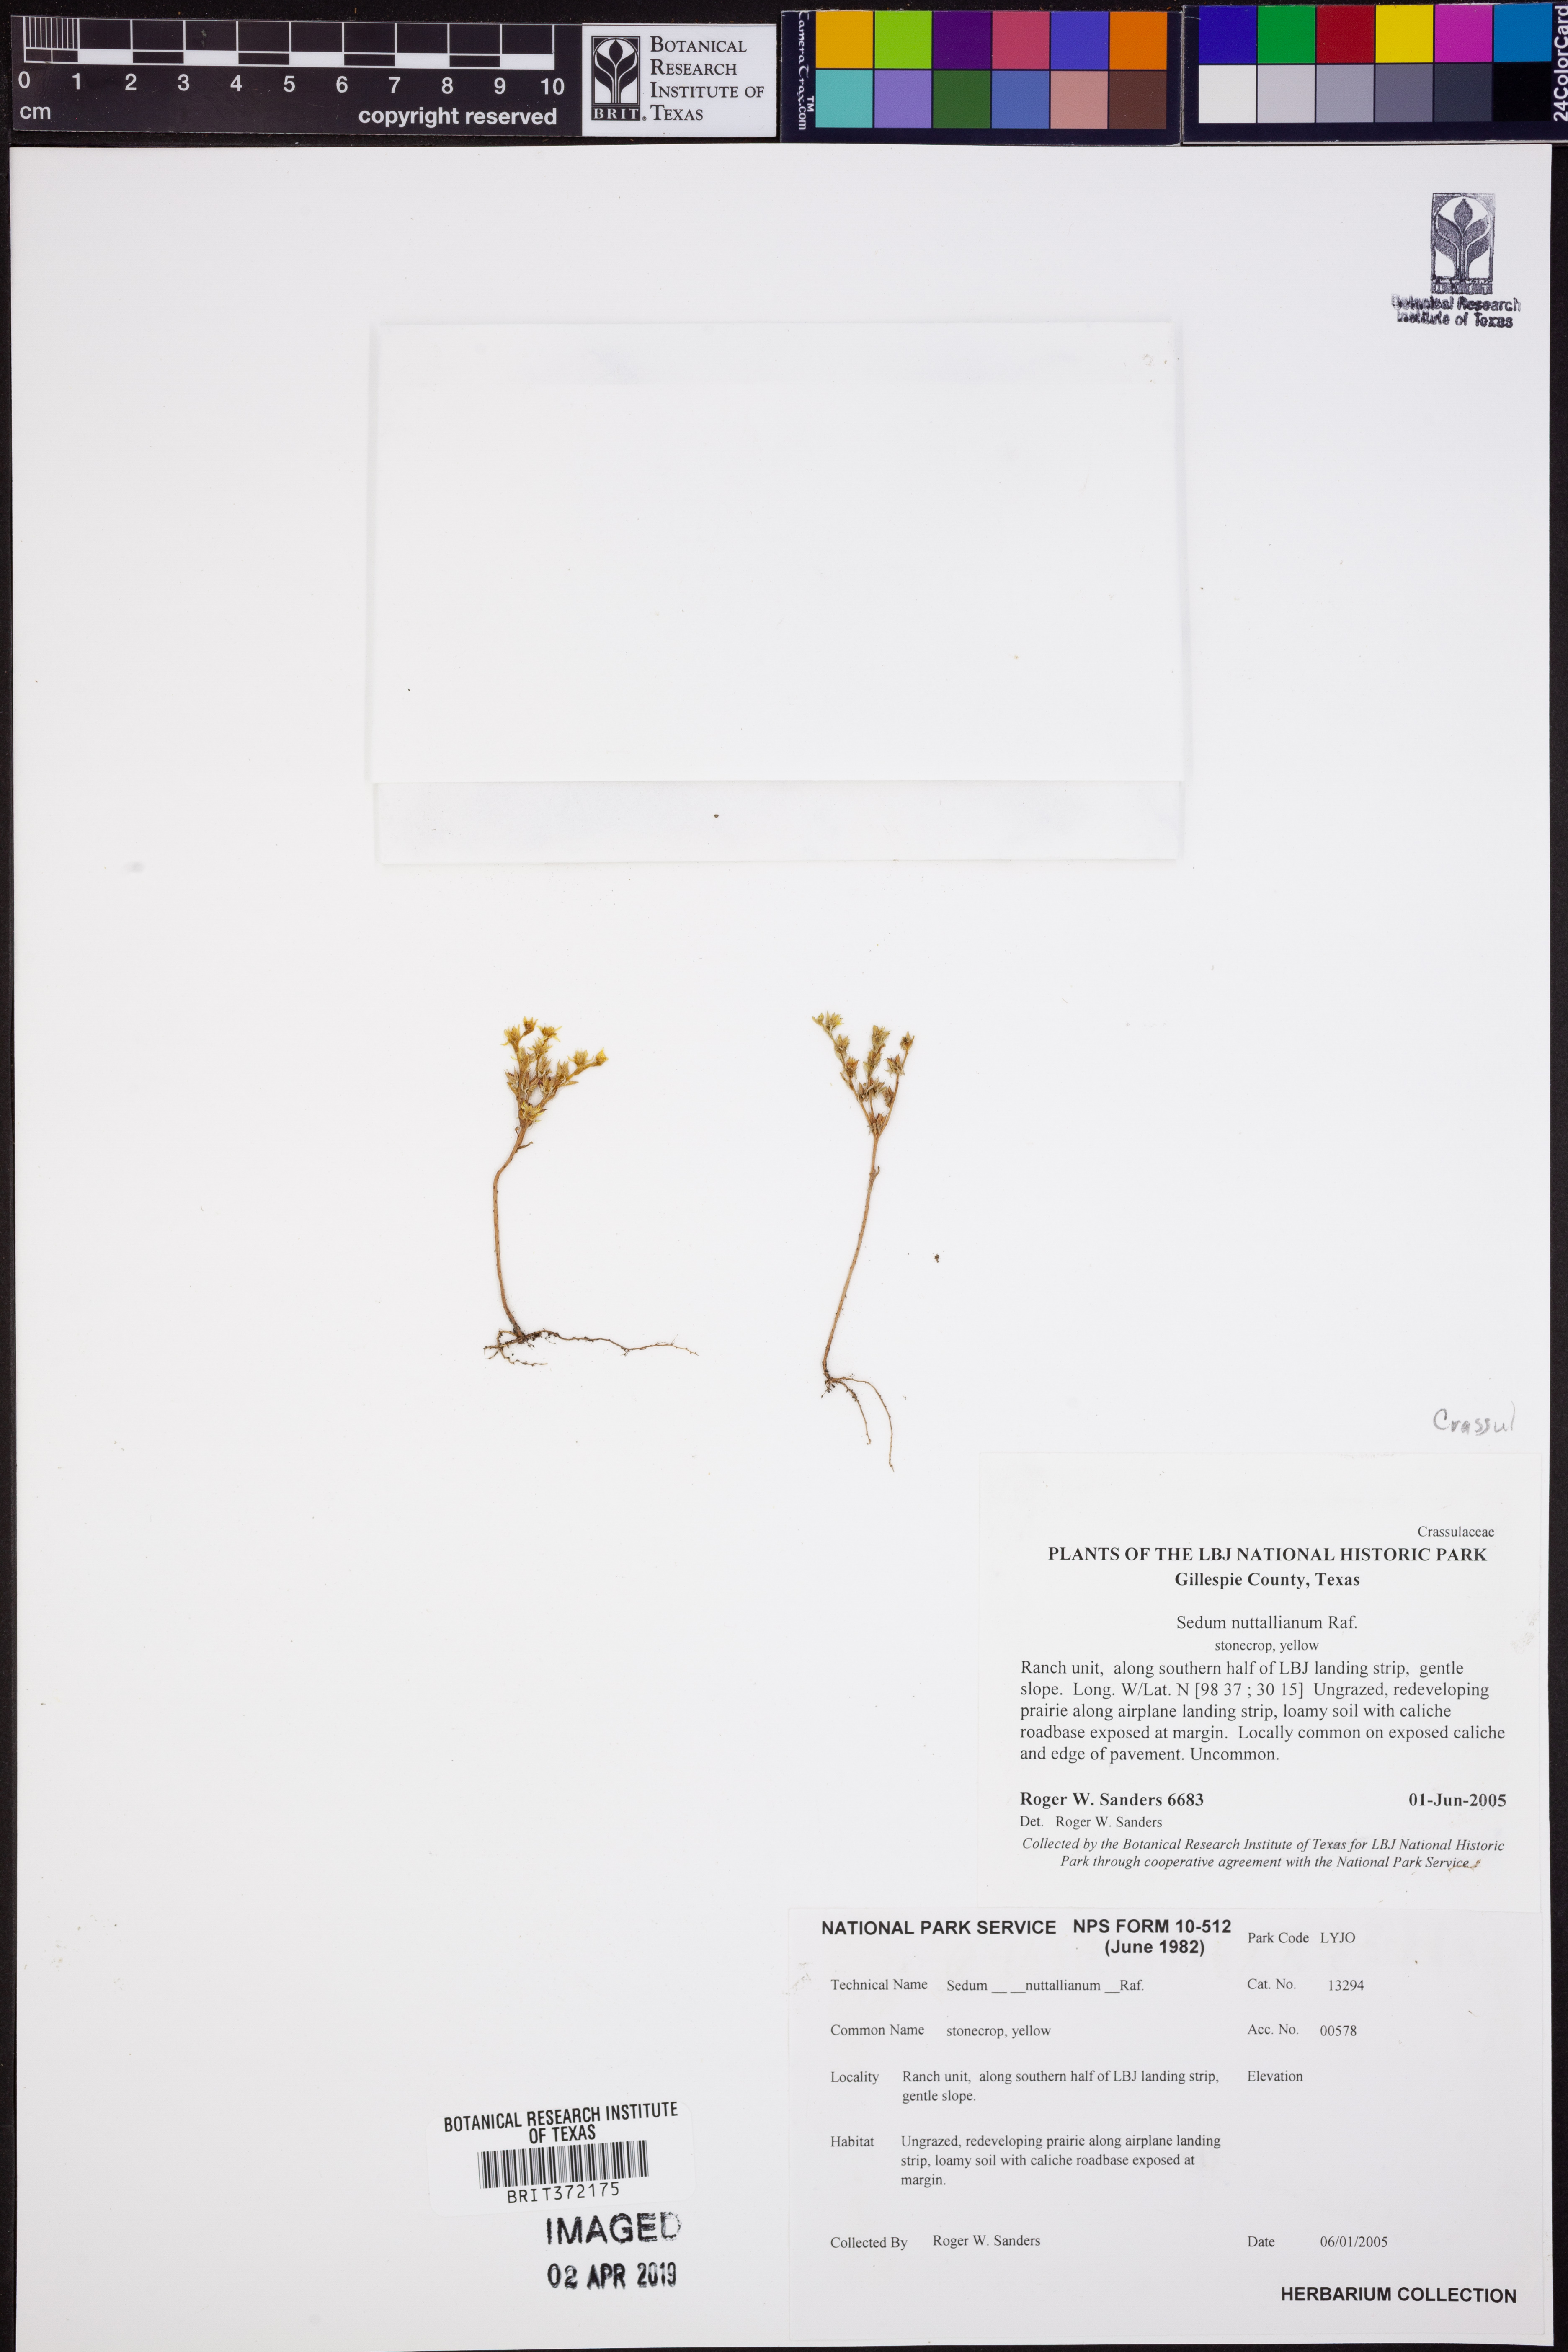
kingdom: Plantae
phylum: Tracheophyta
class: Magnoliopsida
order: Saxifragales
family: Crassulaceae
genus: Sedum
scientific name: Sedum nuttallii
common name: Yellow stonecrop
